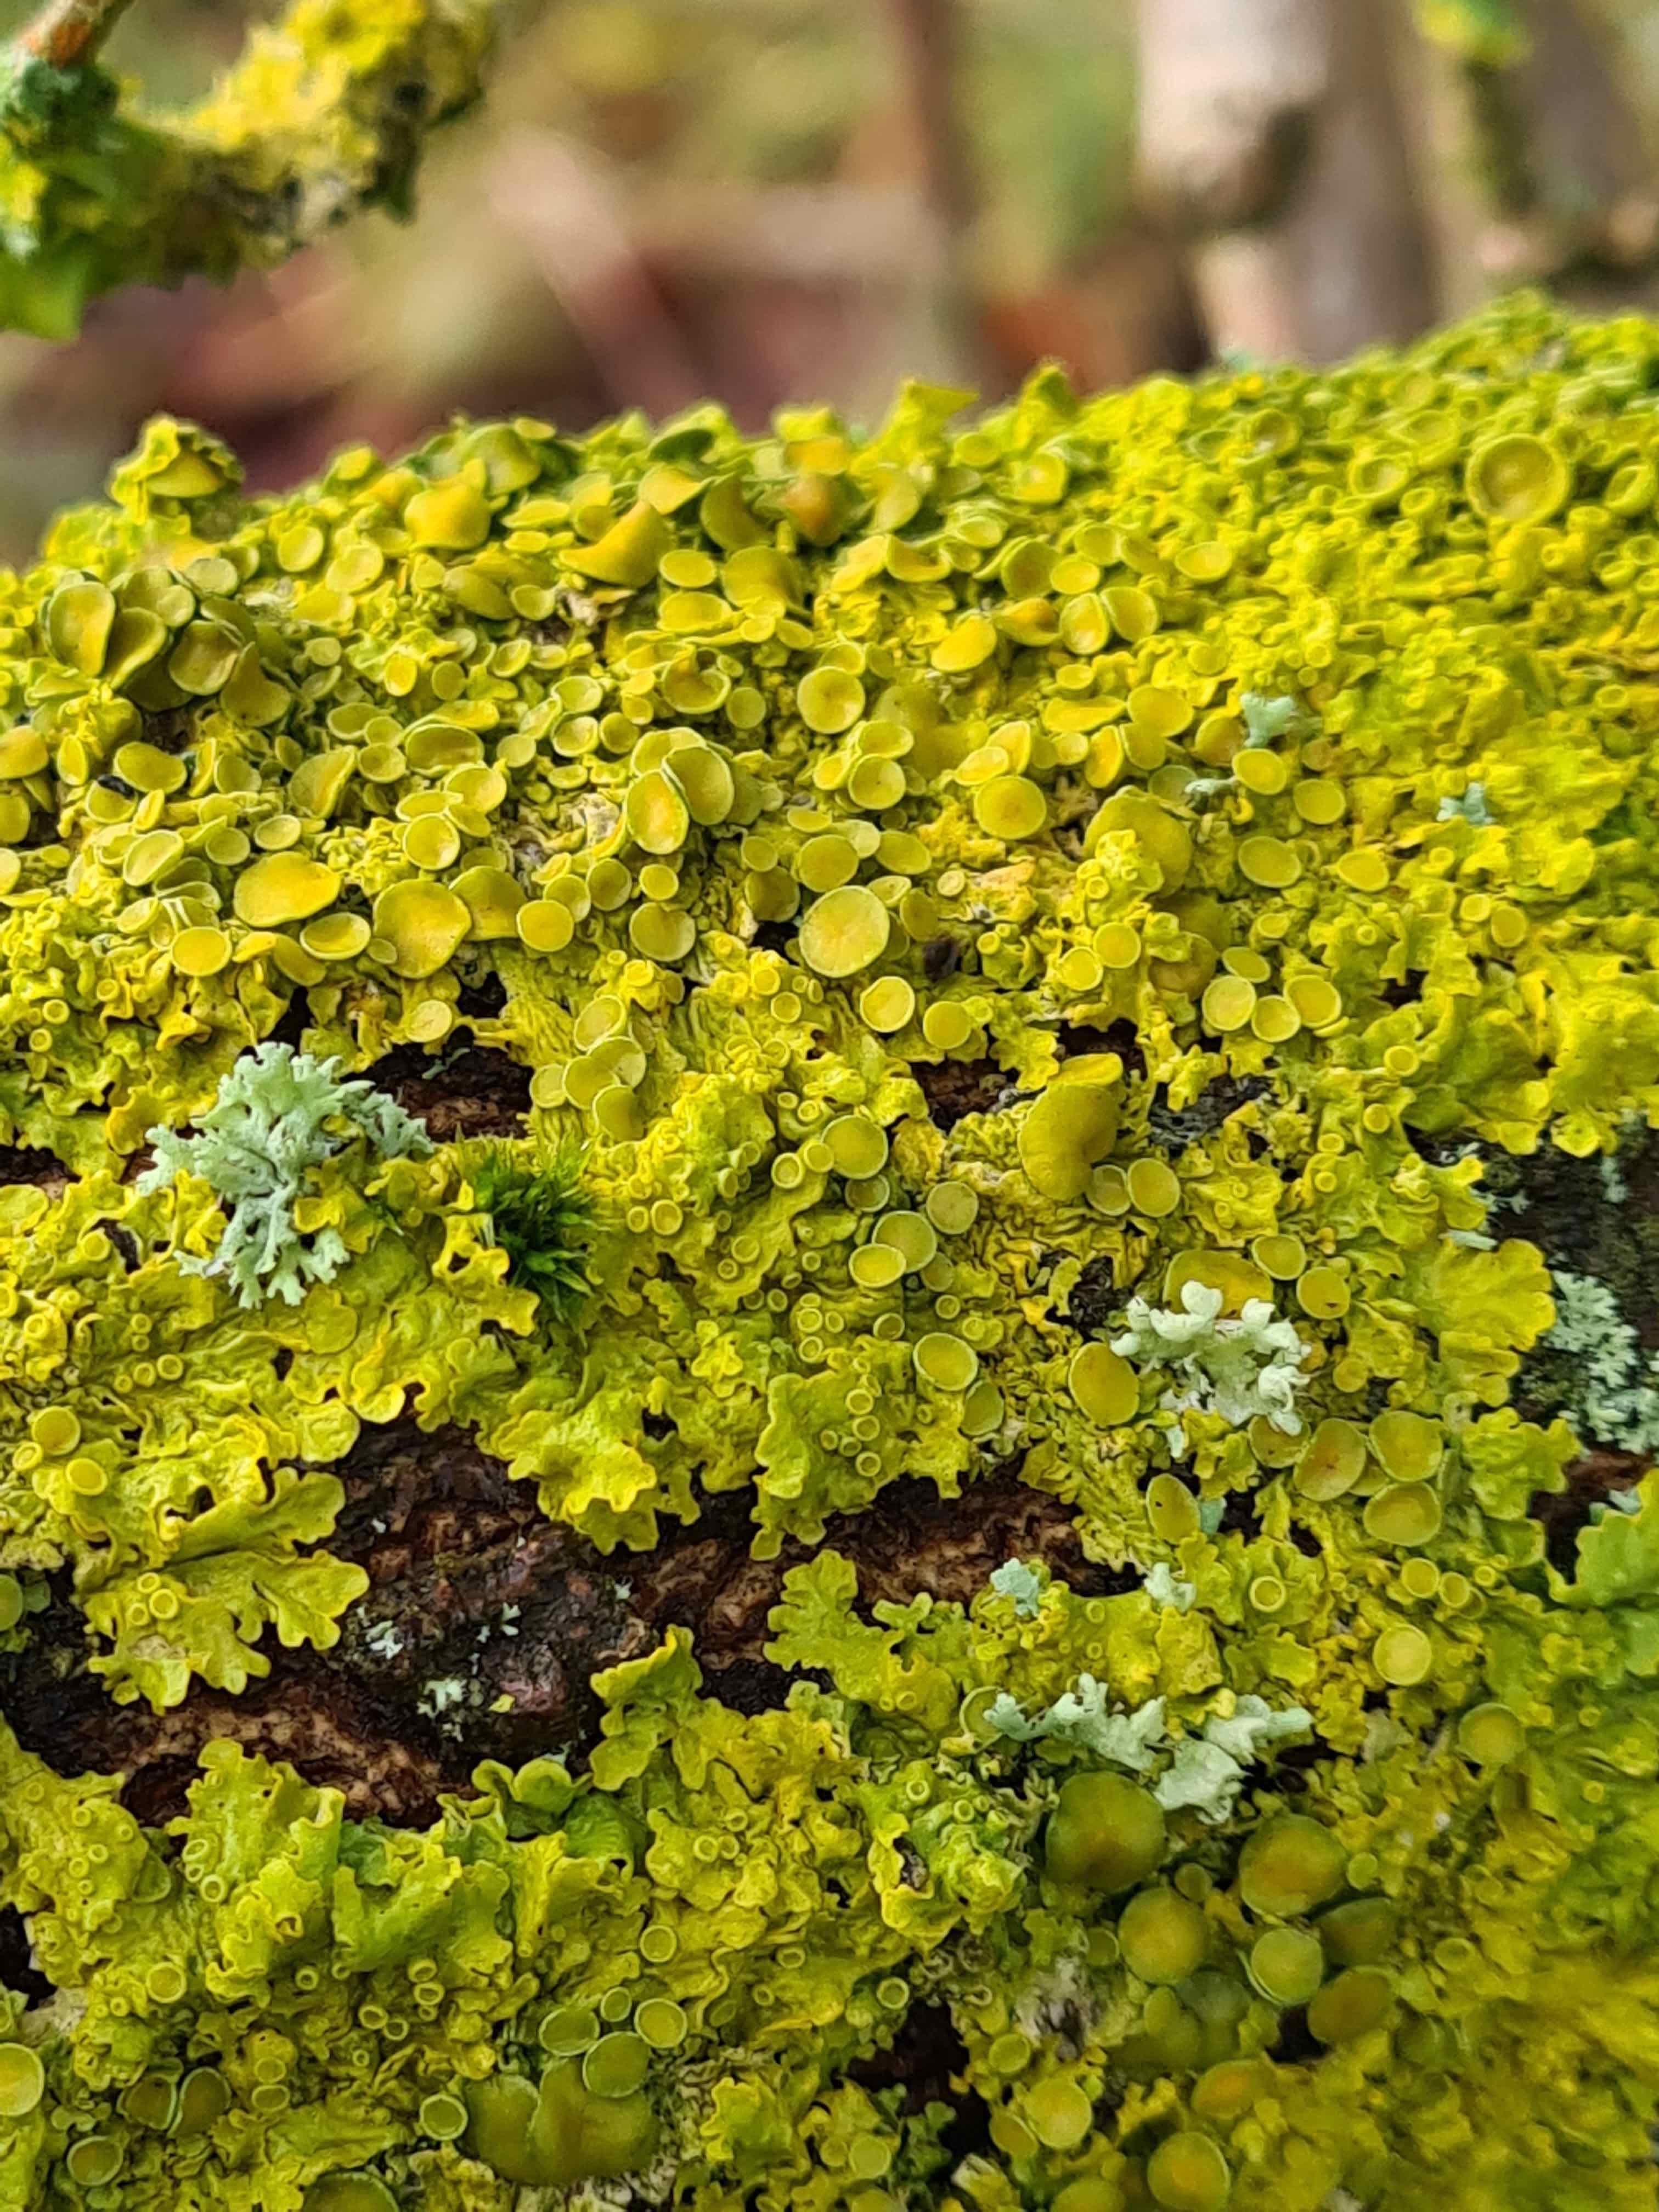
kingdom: Fungi
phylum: Ascomycota
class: Lecanoromycetes
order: Teloschistales
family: Teloschistaceae
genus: Xanthoria
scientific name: Xanthoria parietina
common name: almindelig væggelav
